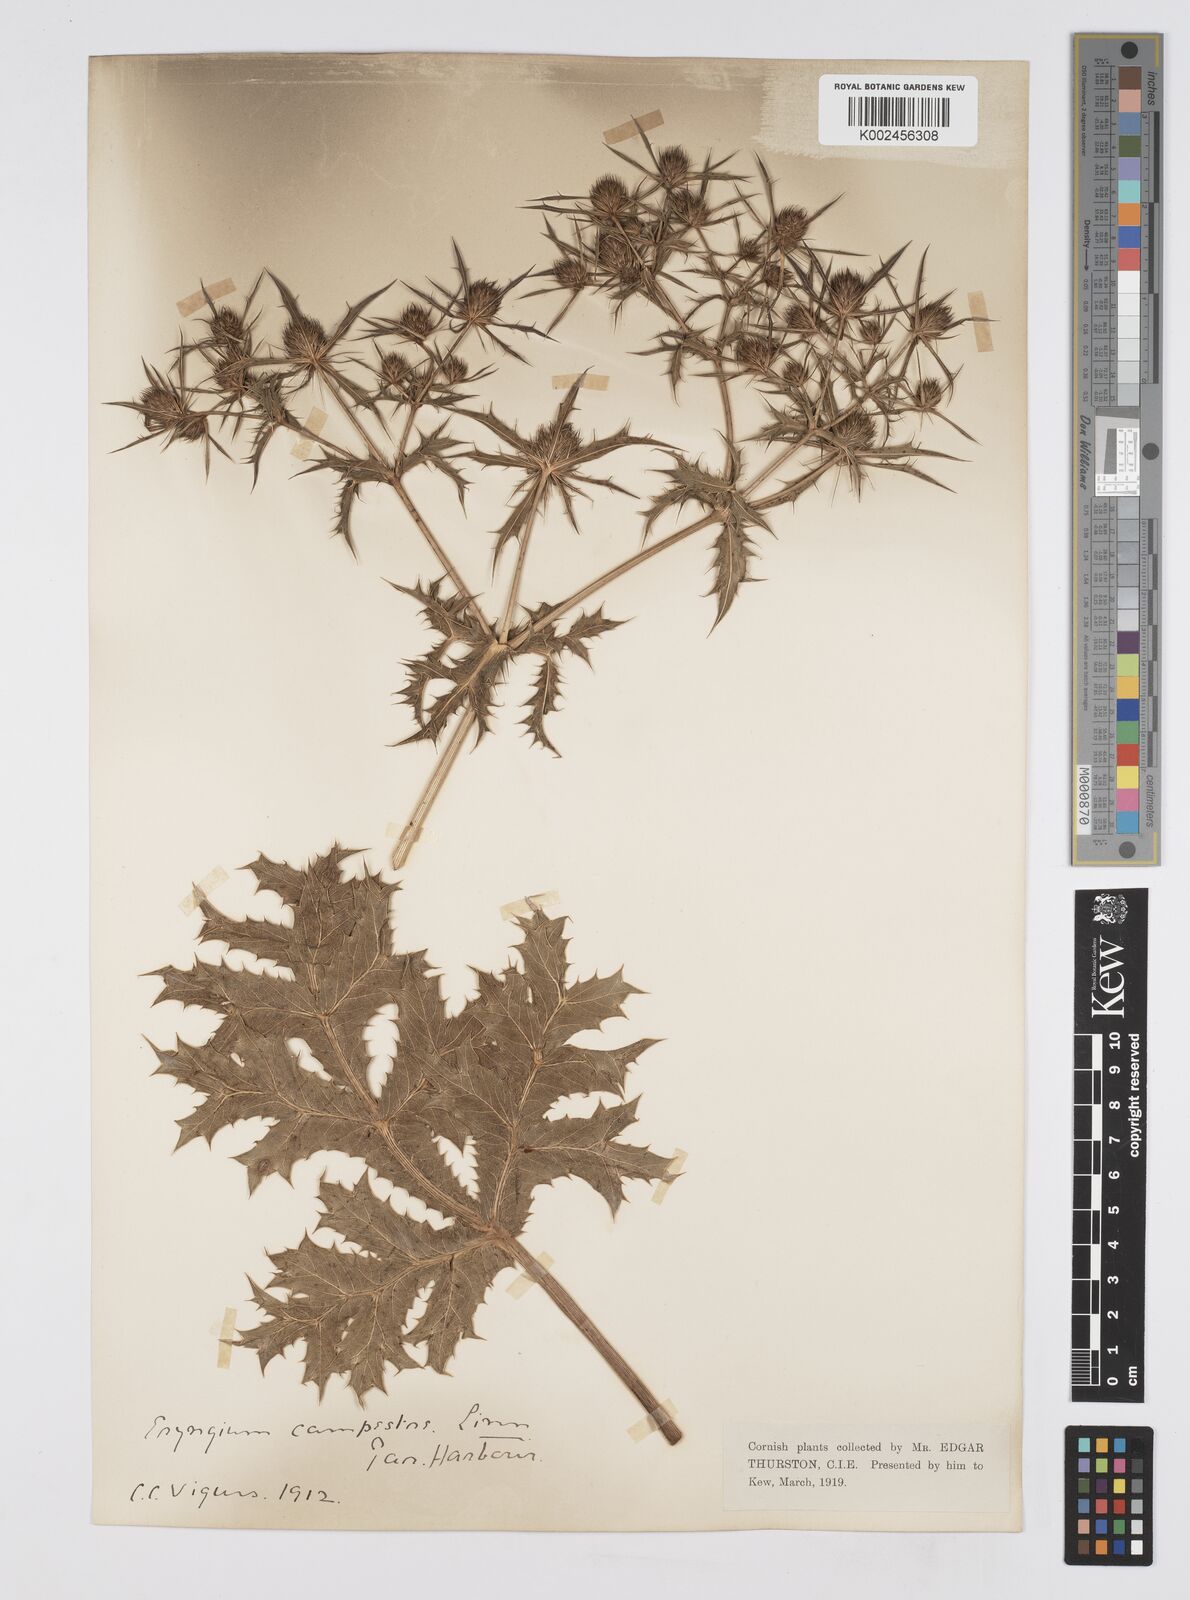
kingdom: Plantae
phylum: Tracheophyta
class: Magnoliopsida
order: Apiales
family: Apiaceae
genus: Eryngium
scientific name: Eryngium campestre
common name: Field eryngo
